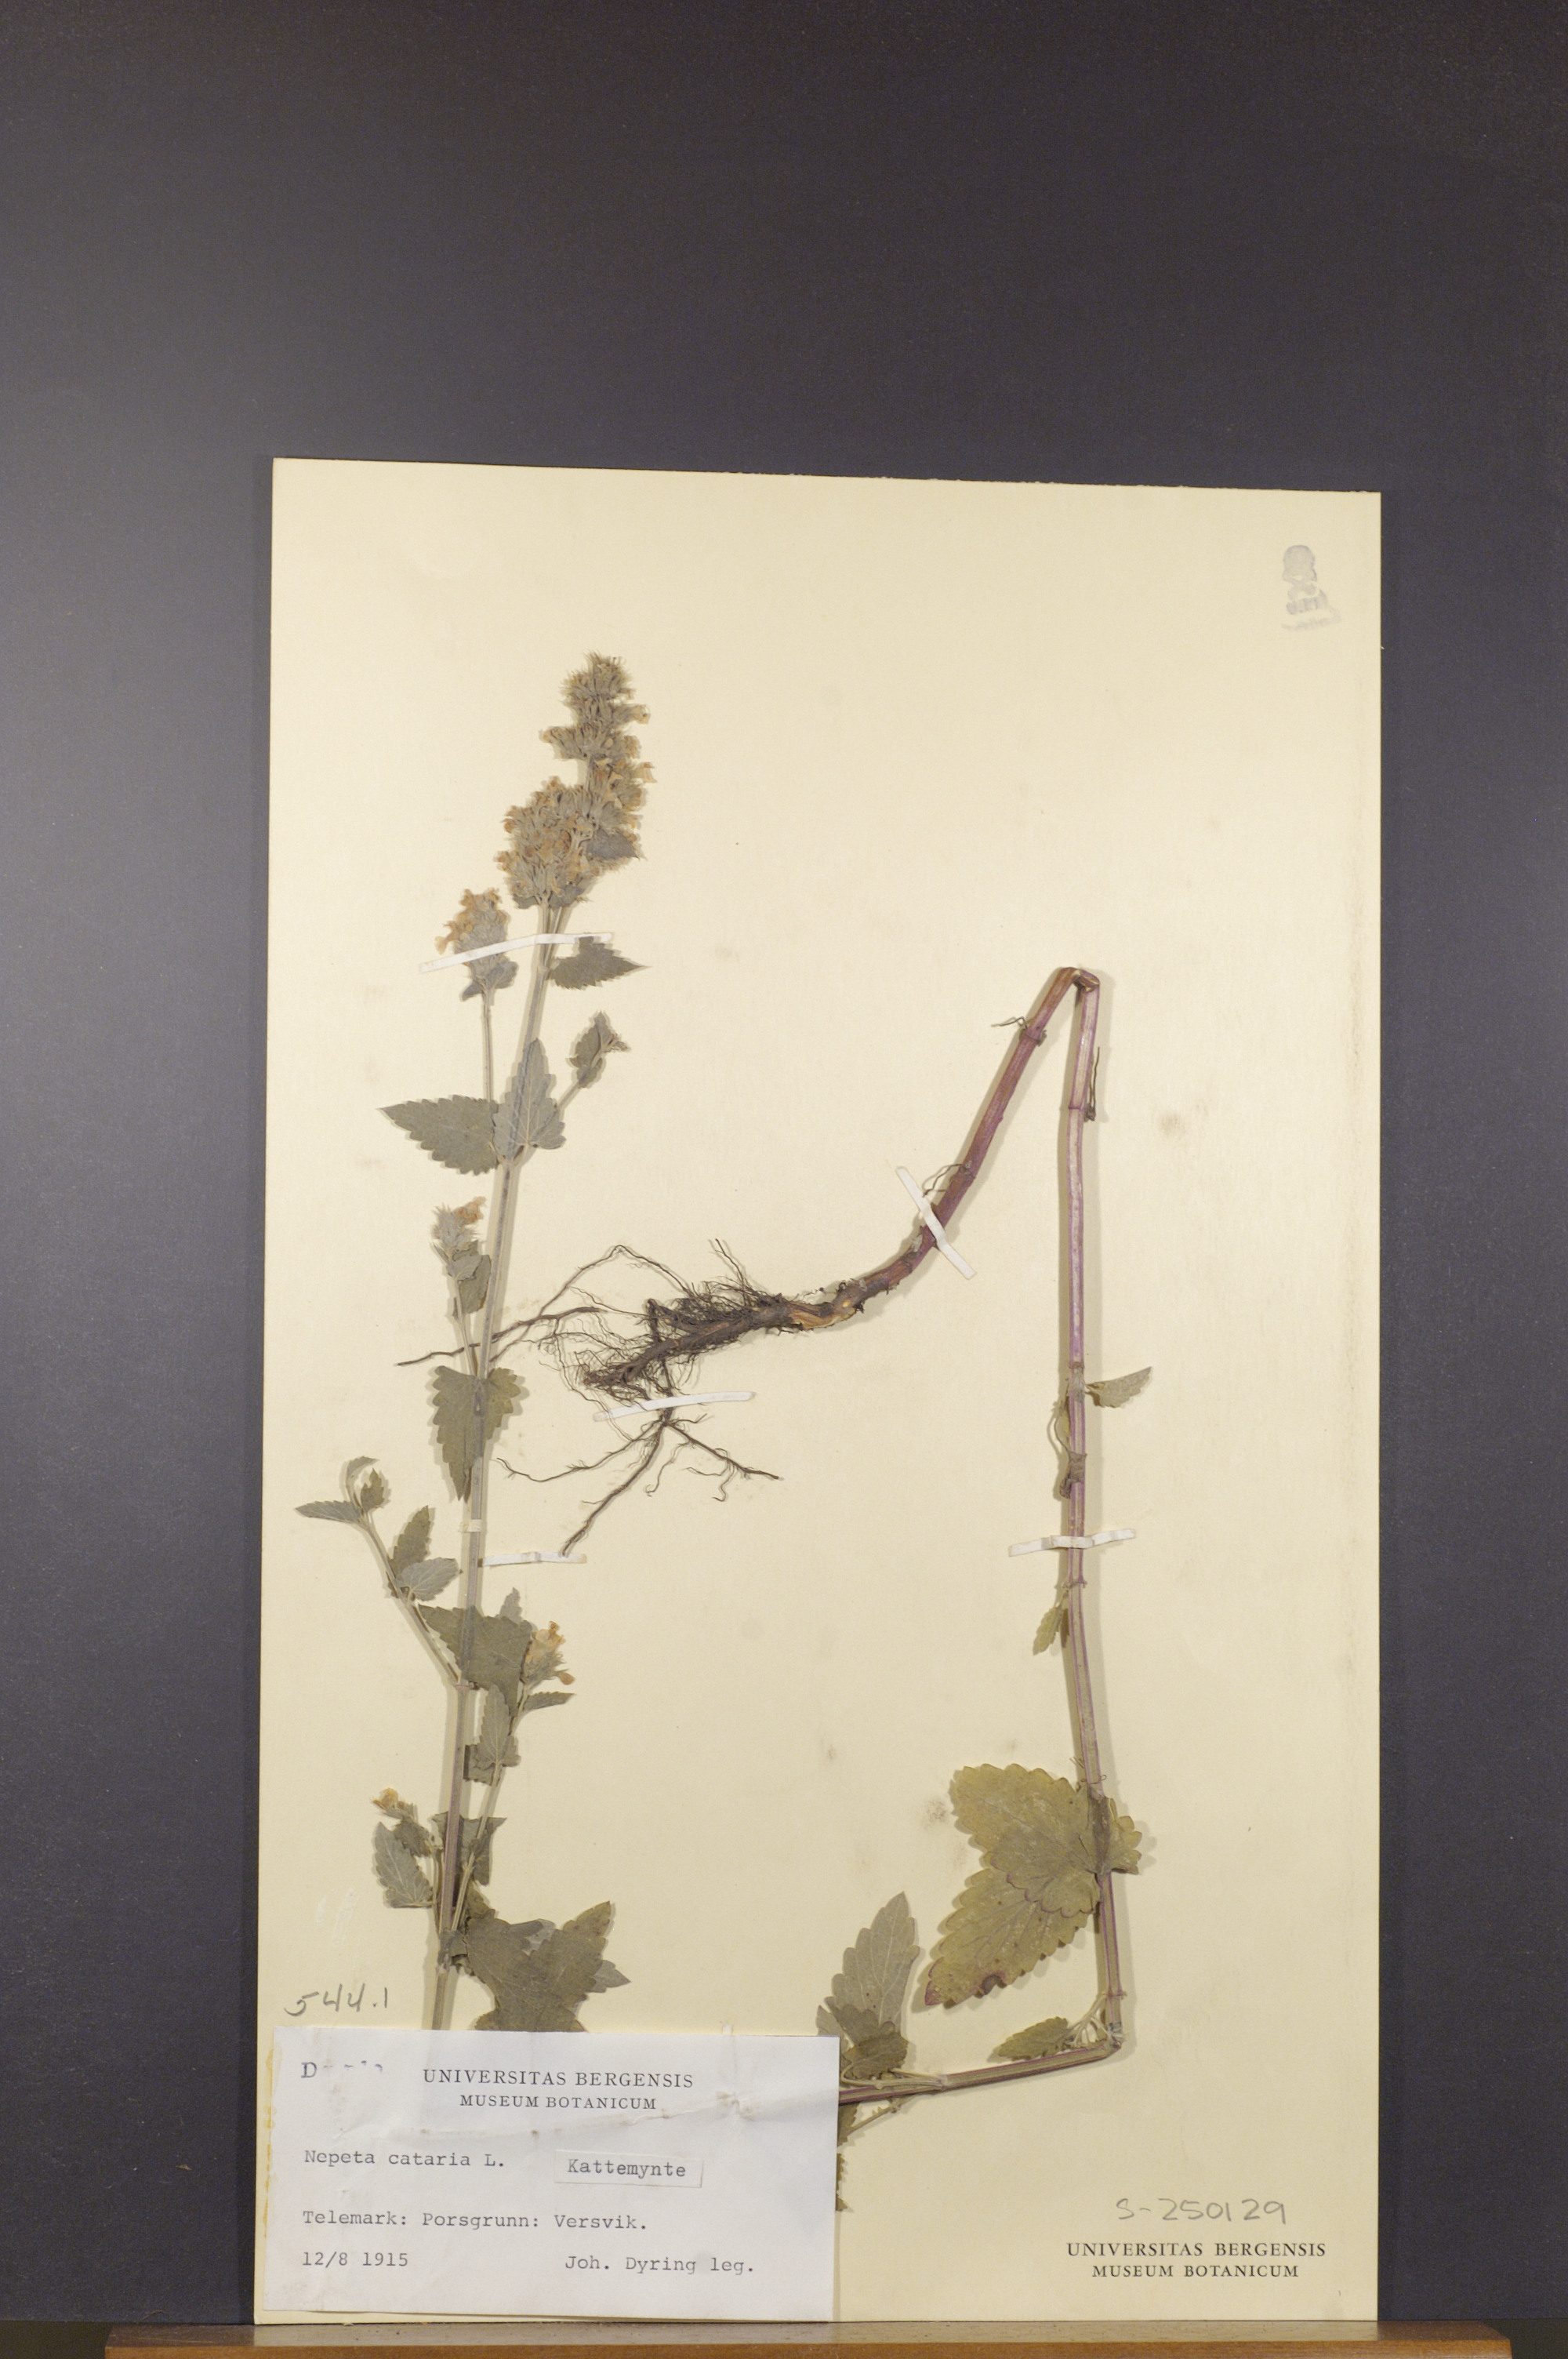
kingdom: Plantae
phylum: Tracheophyta
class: Magnoliopsida
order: Lamiales
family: Lamiaceae
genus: Nepeta
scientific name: Nepeta cataria
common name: Catnip
